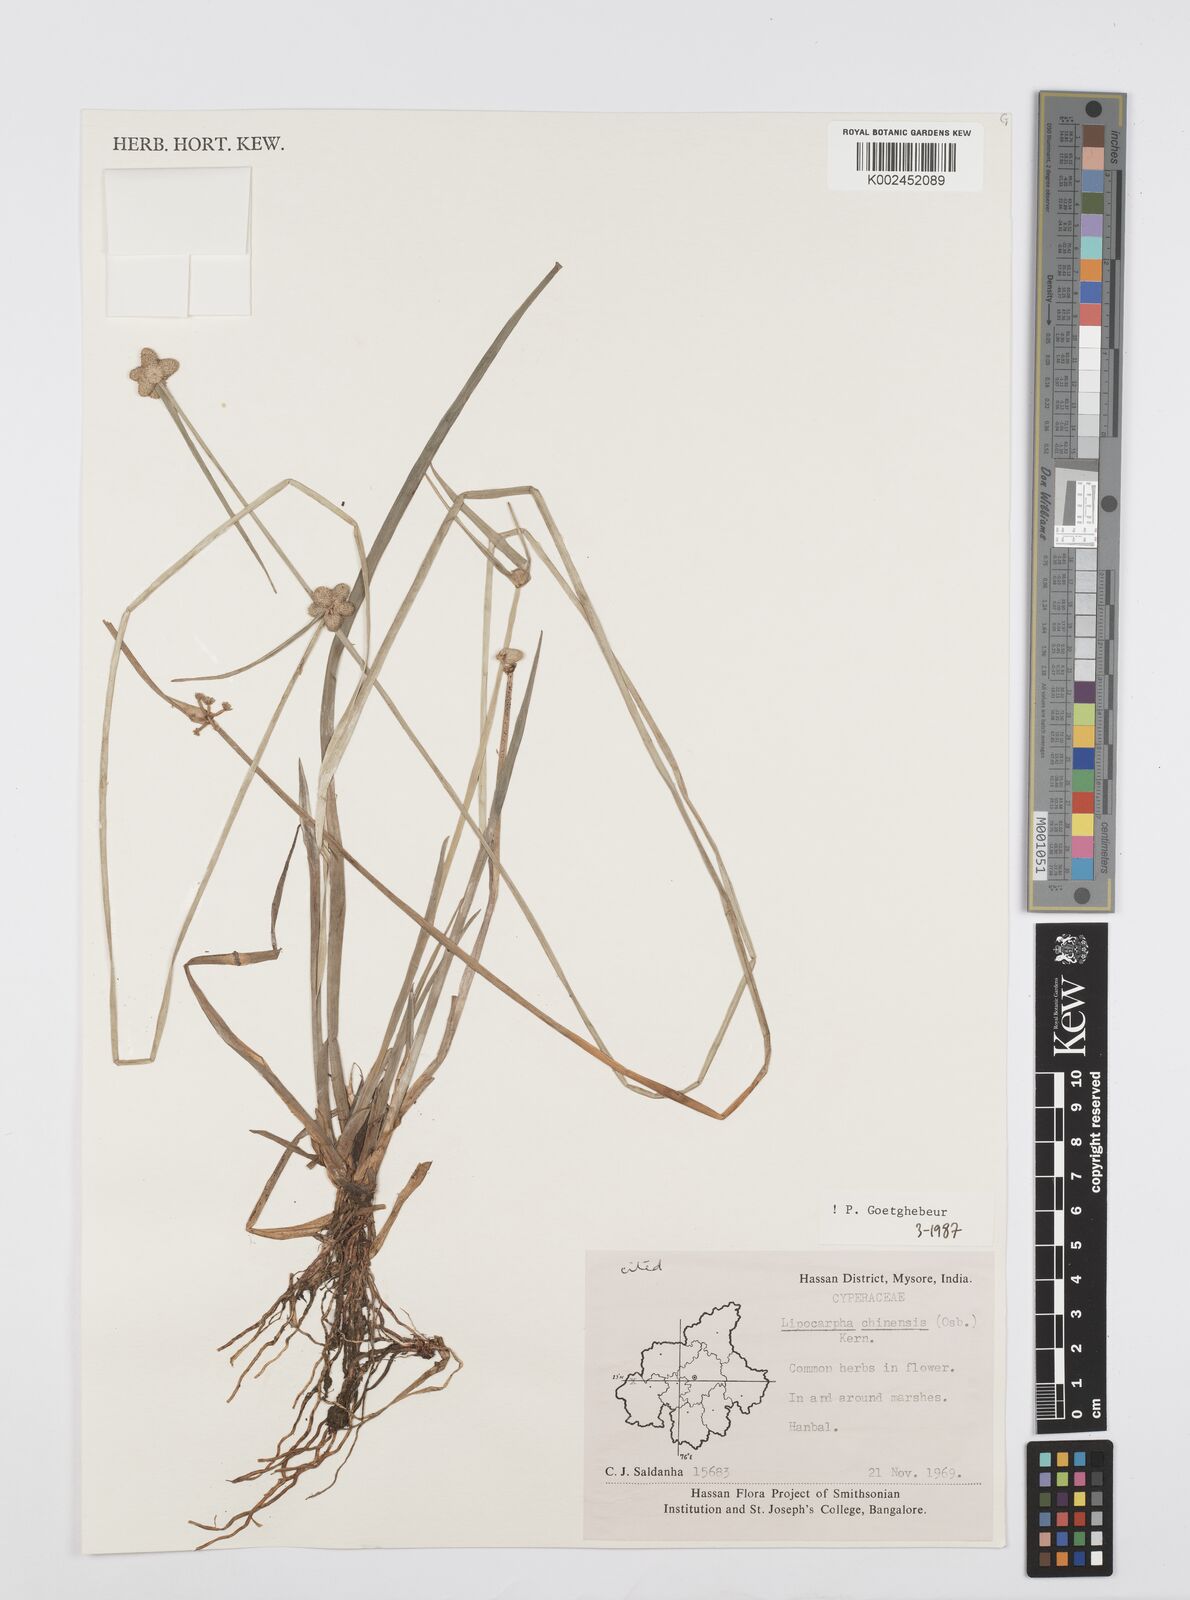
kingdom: Plantae
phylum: Tracheophyta
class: Liliopsida
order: Poales
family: Cyperaceae
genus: Cyperus
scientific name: Cyperus
